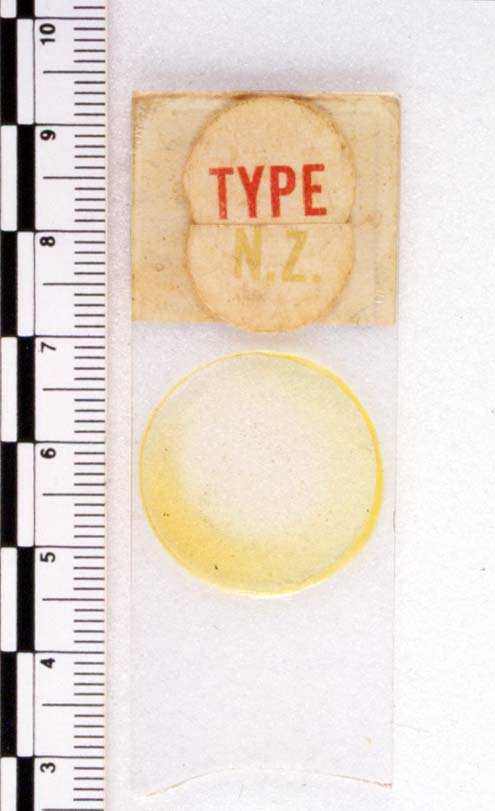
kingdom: Protozoa
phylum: Metamonada
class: Trichonymphea
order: Trichonymphida
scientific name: Trichonymphida
